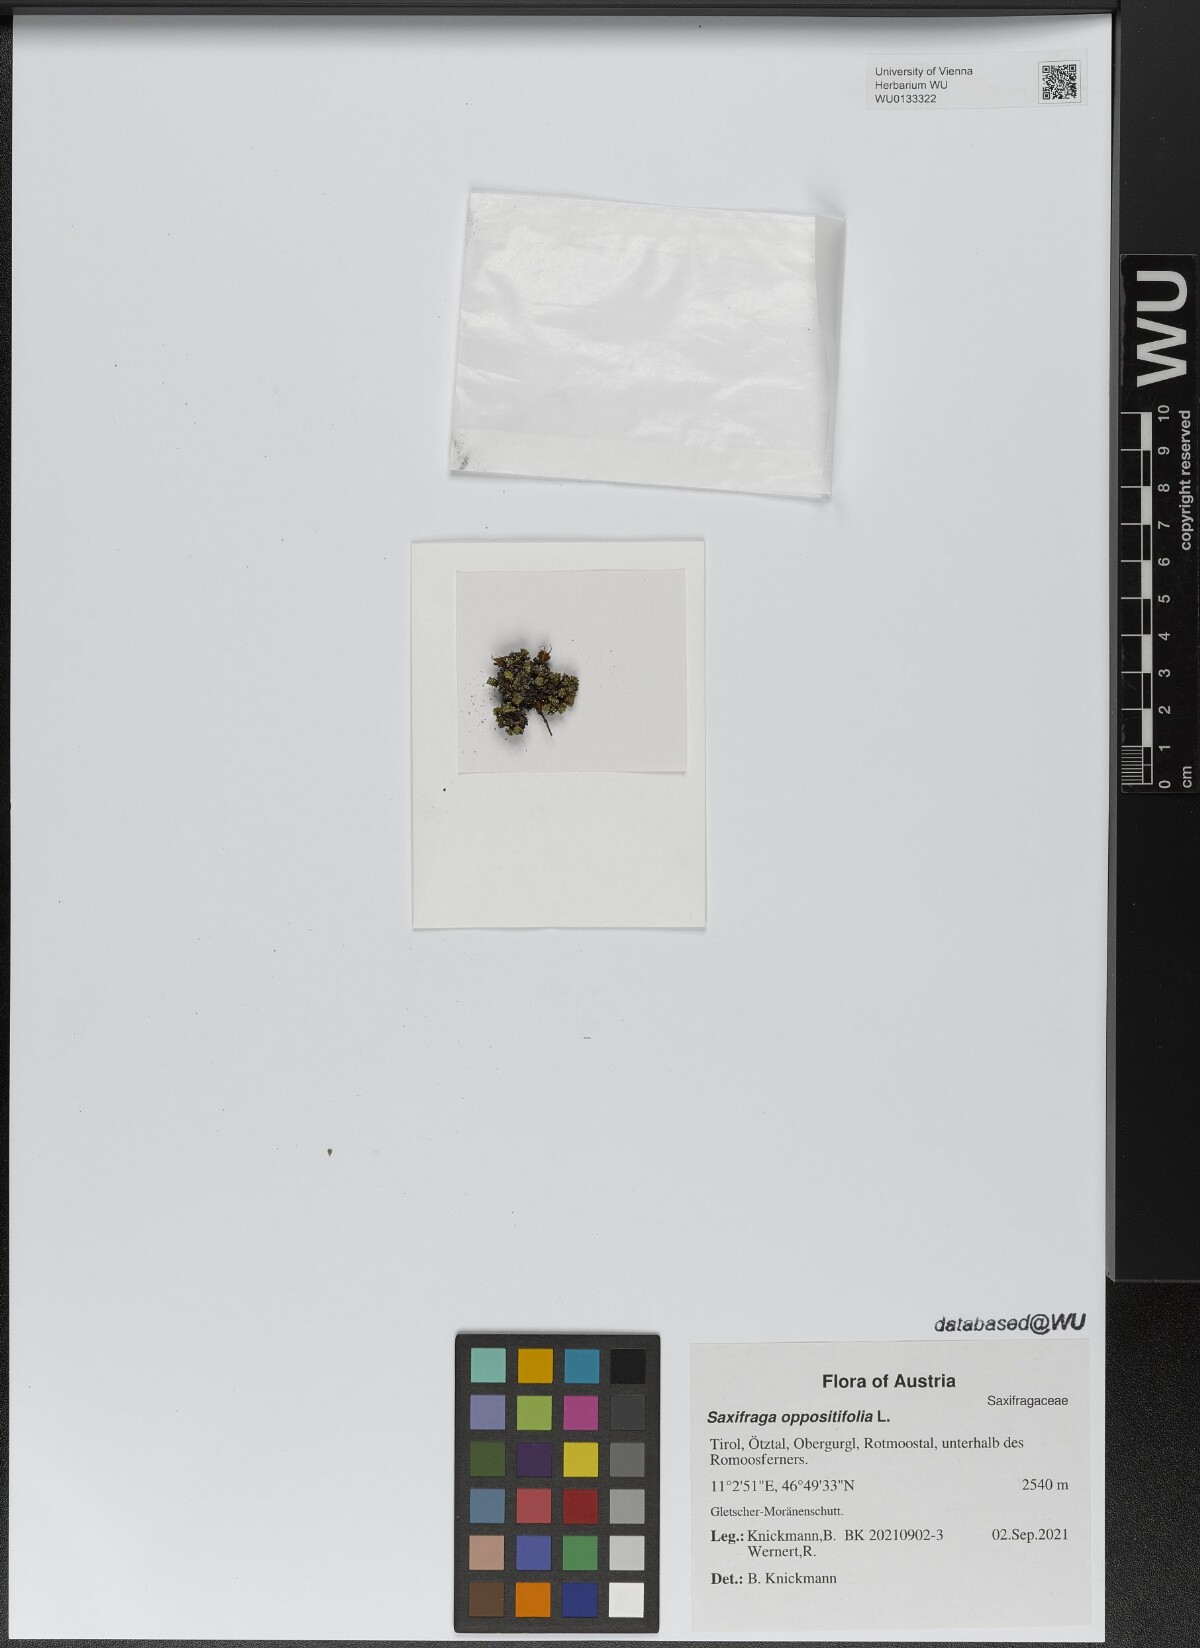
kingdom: Plantae
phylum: Tracheophyta
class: Magnoliopsida
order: Saxifragales
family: Saxifragaceae
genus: Saxifraga
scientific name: Saxifraga oppositifolia
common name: Purple saxifrage
